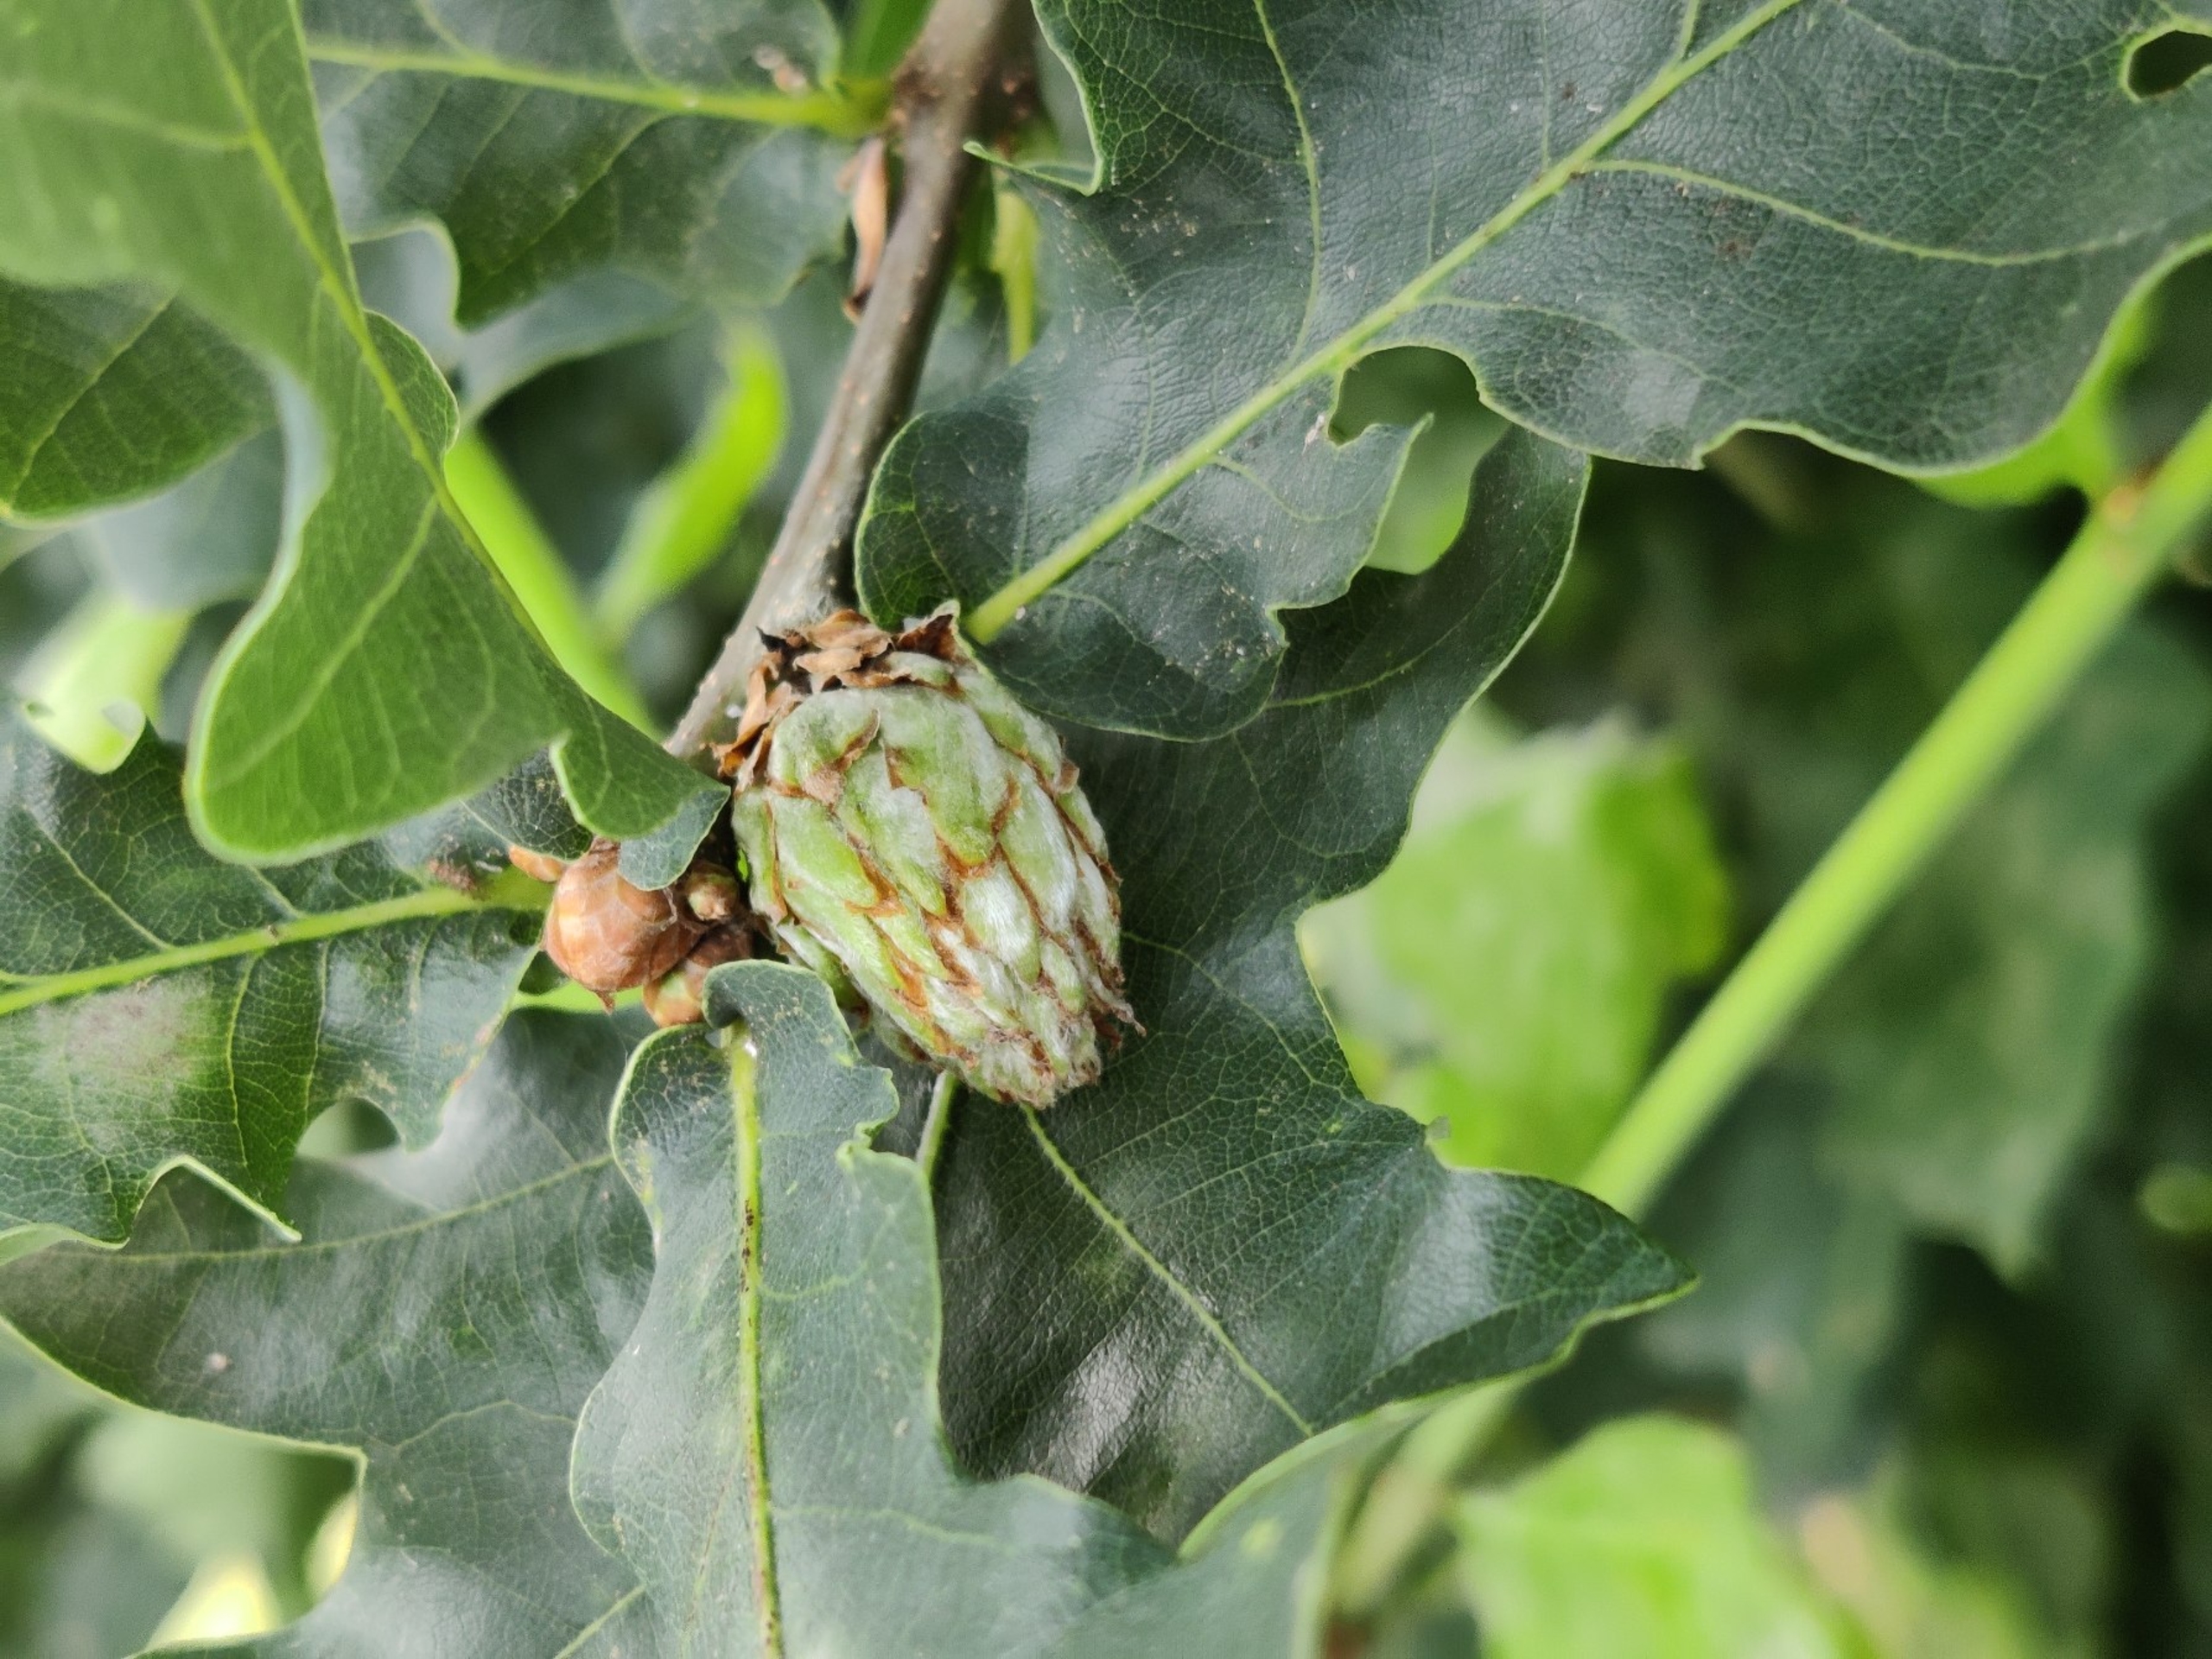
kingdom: Animalia
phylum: Arthropoda
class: Insecta
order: Hymenoptera
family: Cynipidae
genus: Andricus
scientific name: Andricus foecundatrix
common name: Artiskokgalhveps
